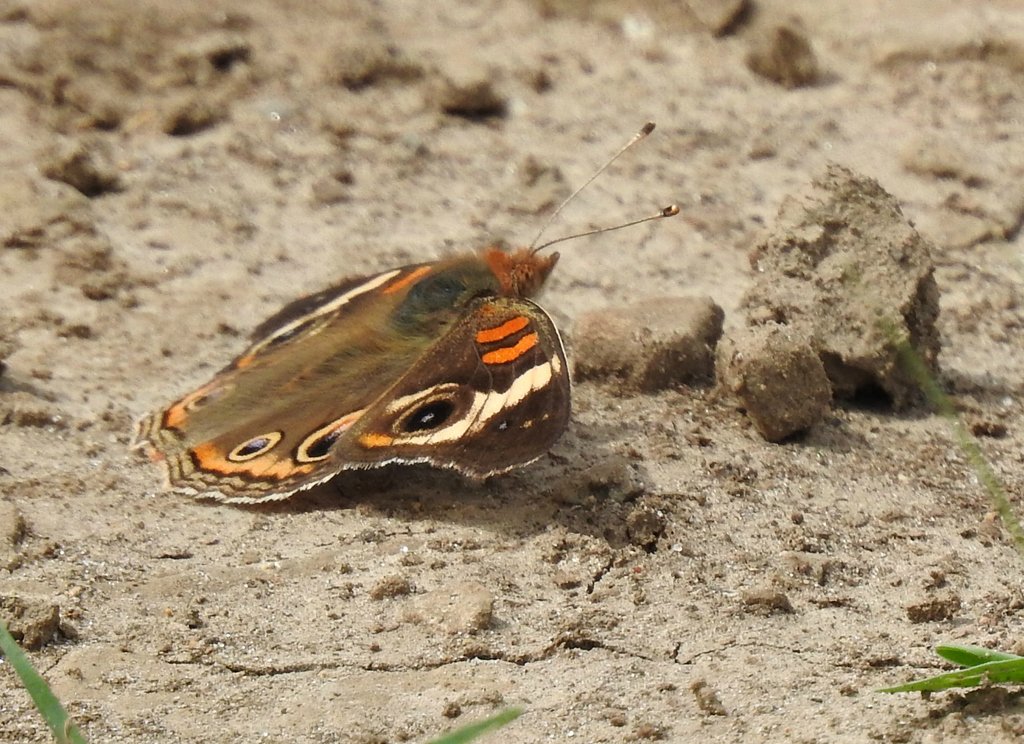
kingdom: Animalia
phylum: Arthropoda
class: Insecta
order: Lepidoptera
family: Nymphalidae
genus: Junonia
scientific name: Junonia coenia
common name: Common Buckeye
